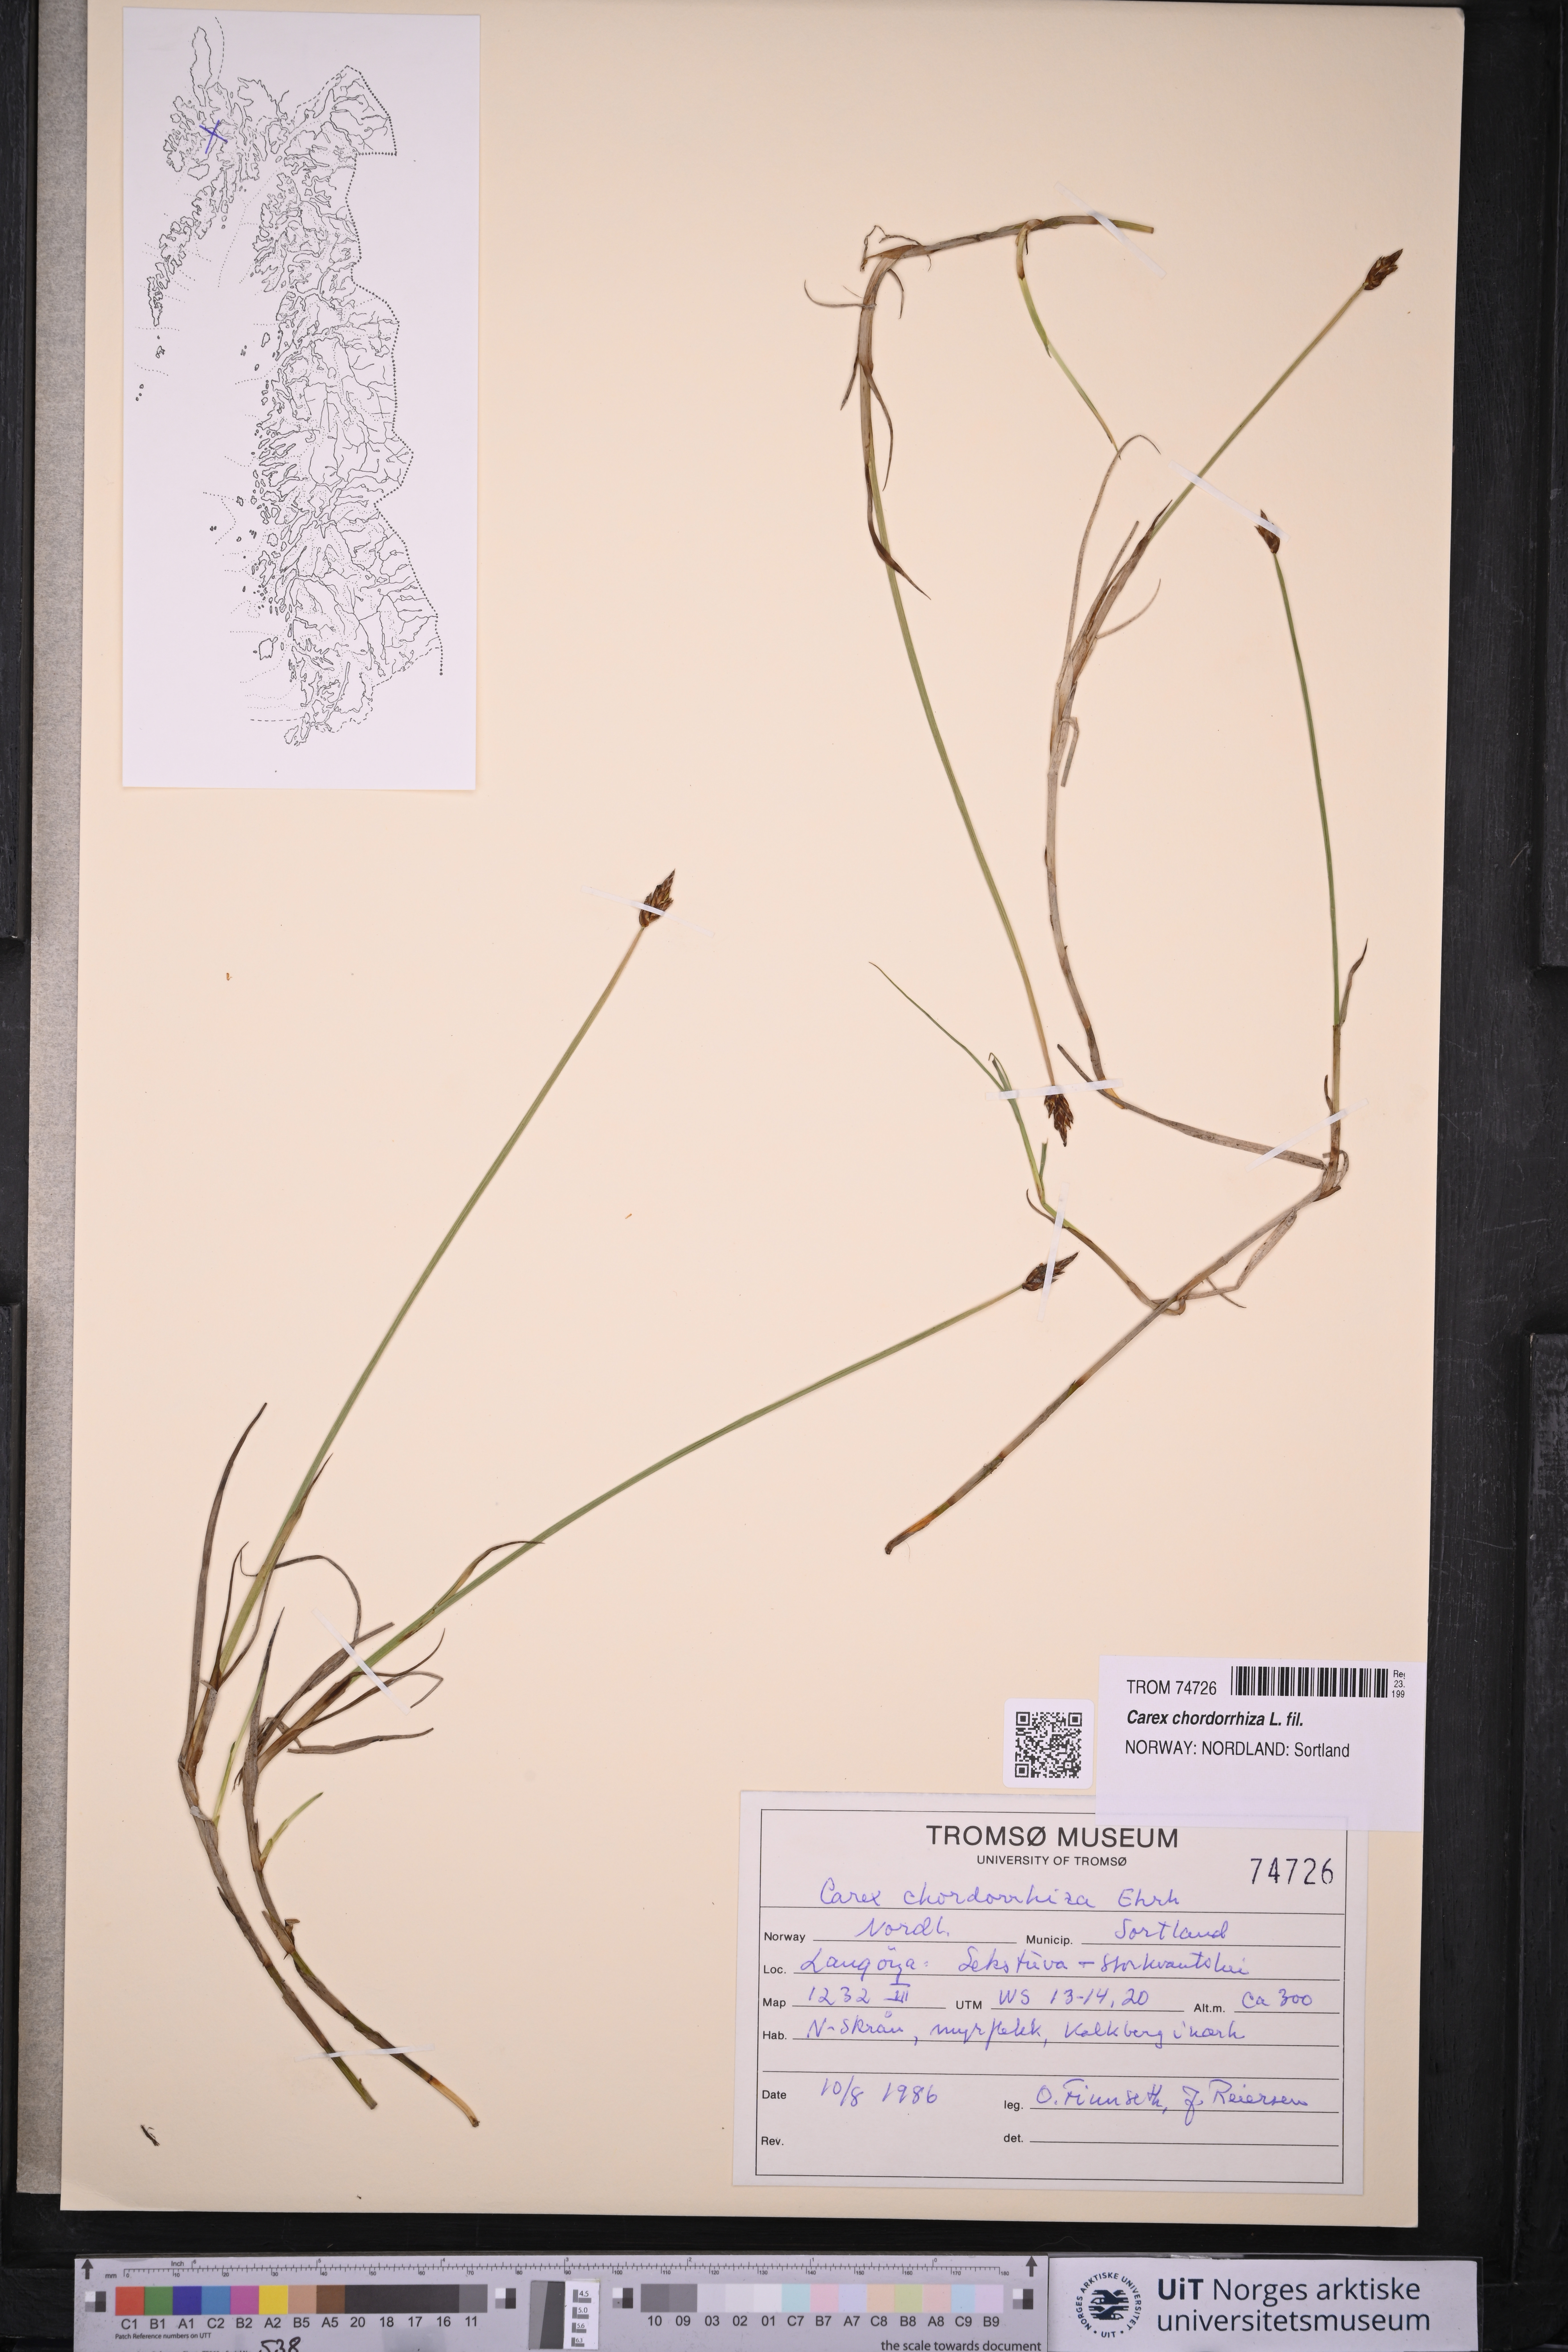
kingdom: Plantae
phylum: Tracheophyta
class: Liliopsida
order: Poales
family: Cyperaceae
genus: Carex
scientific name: Carex chordorrhiza
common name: String sedge
